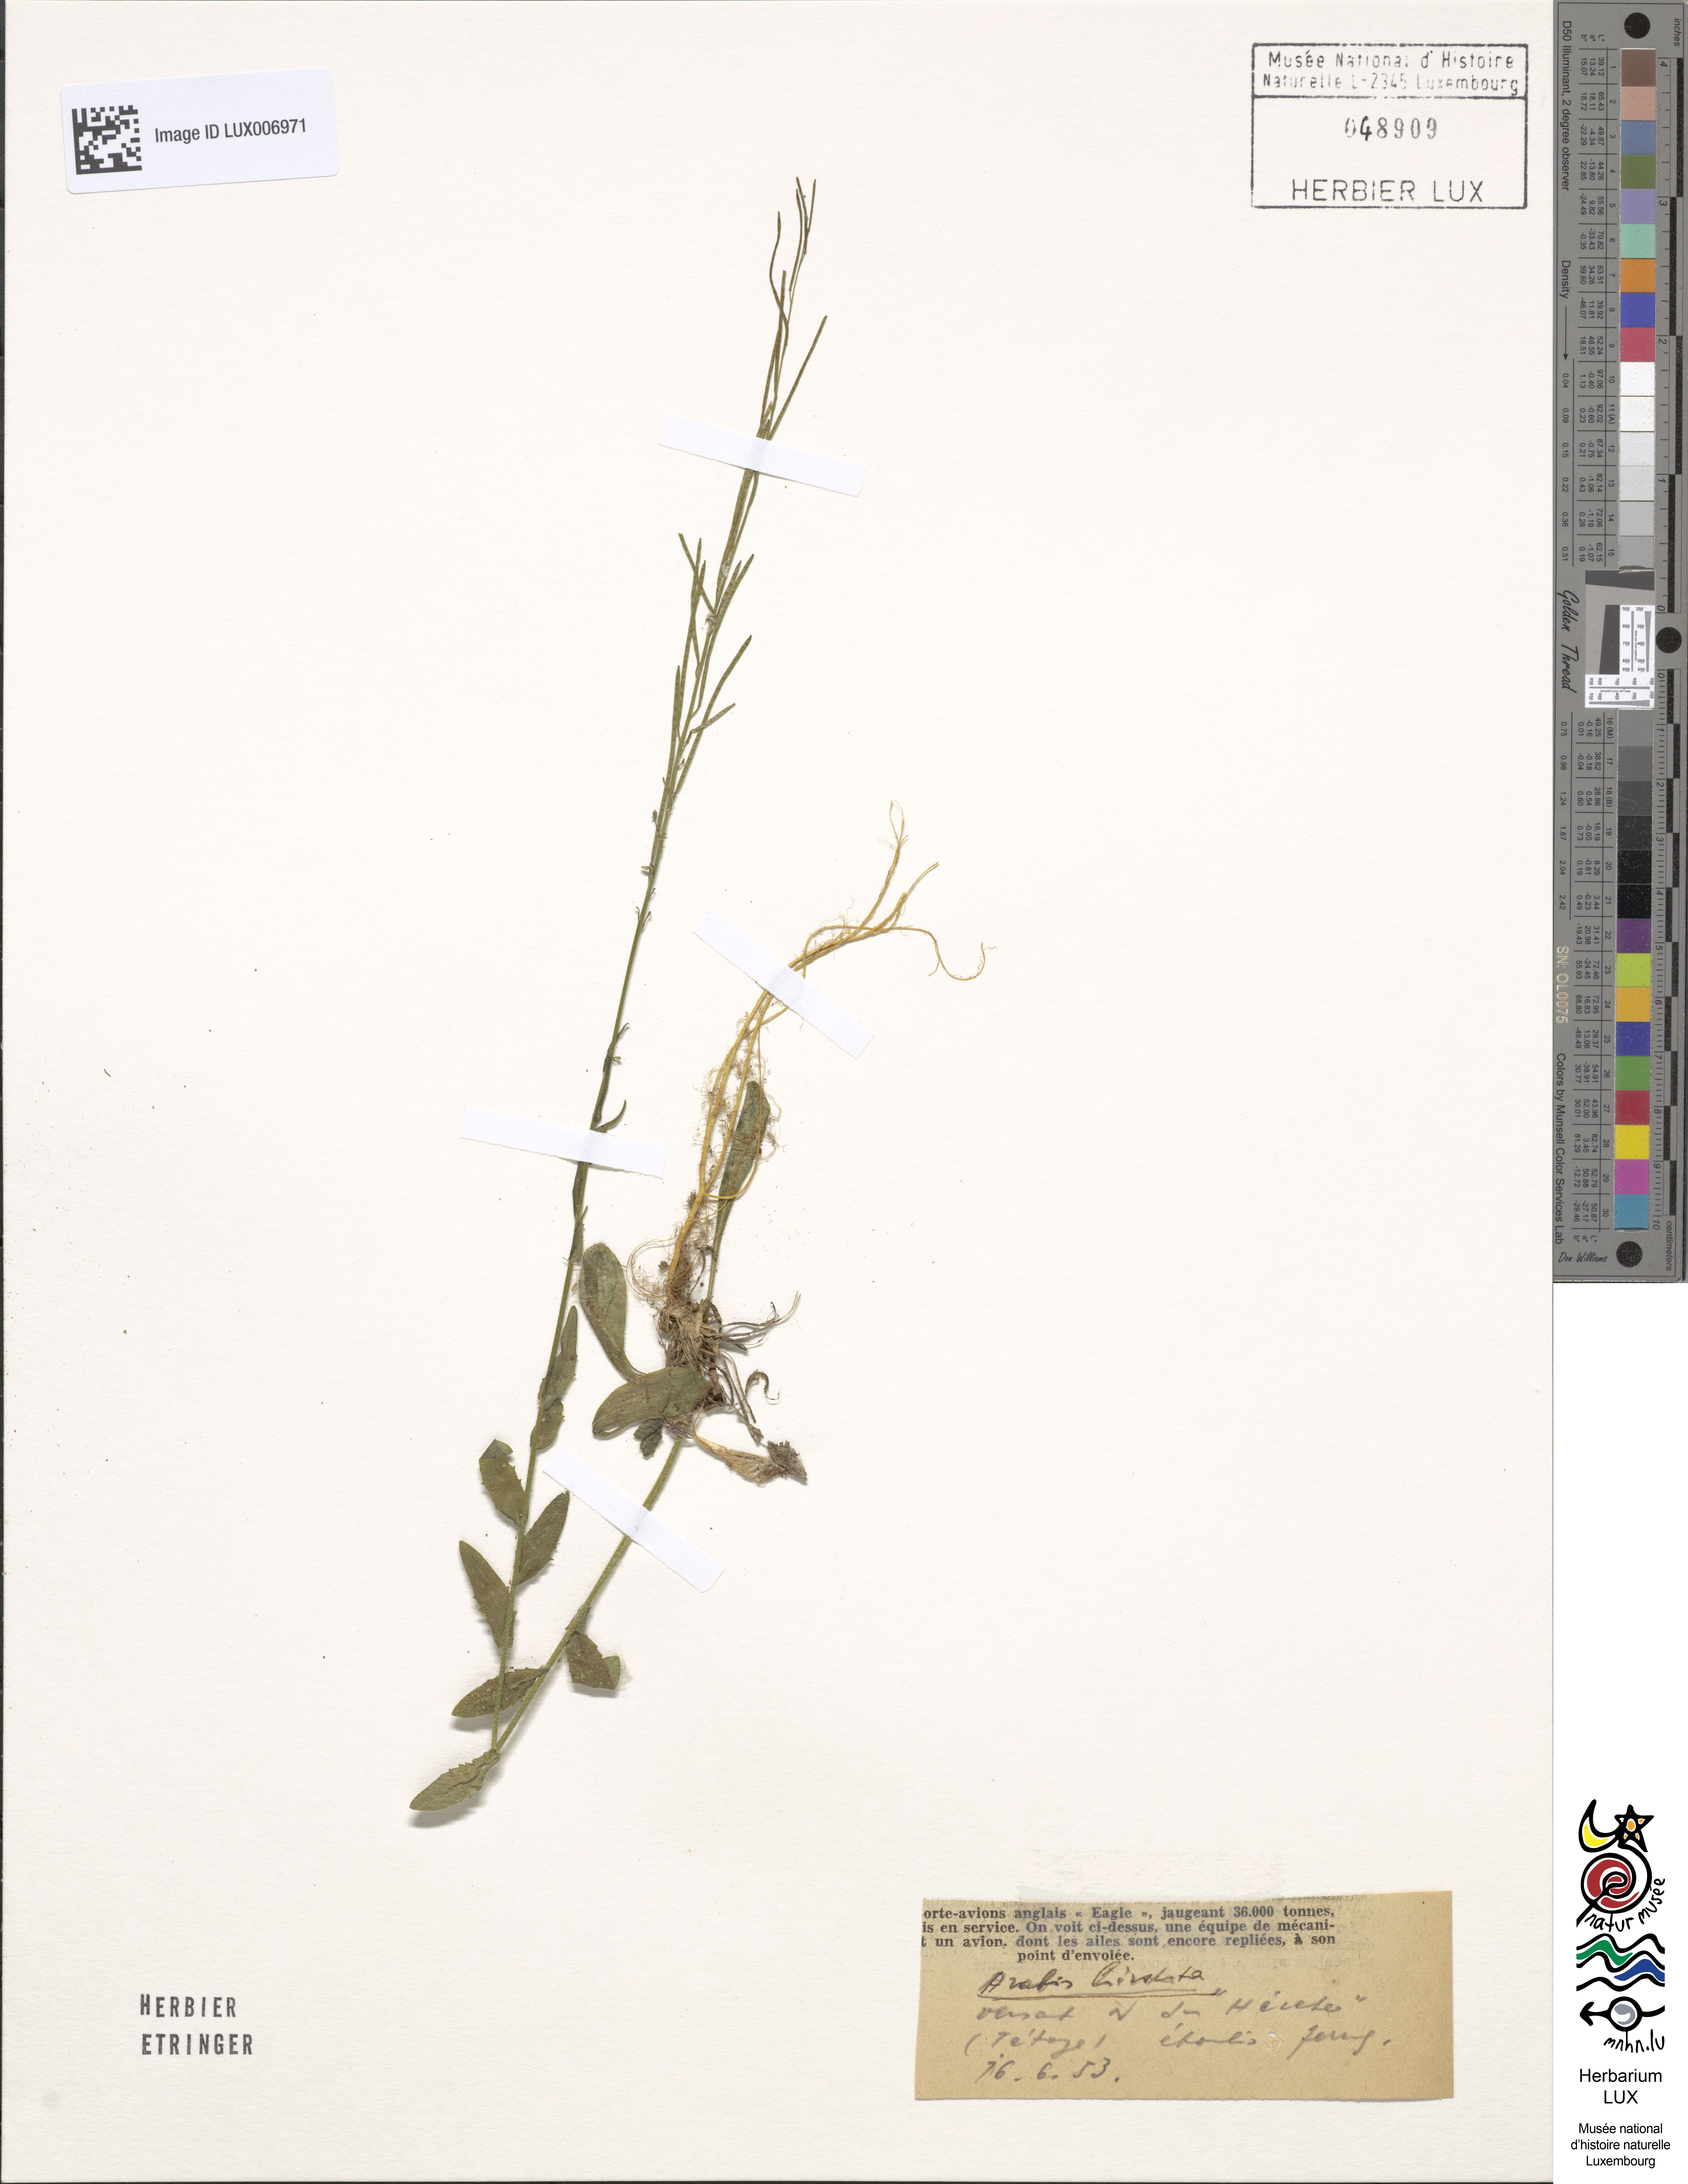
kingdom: Plantae
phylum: Tracheophyta
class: Magnoliopsida
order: Brassicales
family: Brassicaceae
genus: Arabis
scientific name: Arabis hirsuta
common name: Hairy rock-cress
